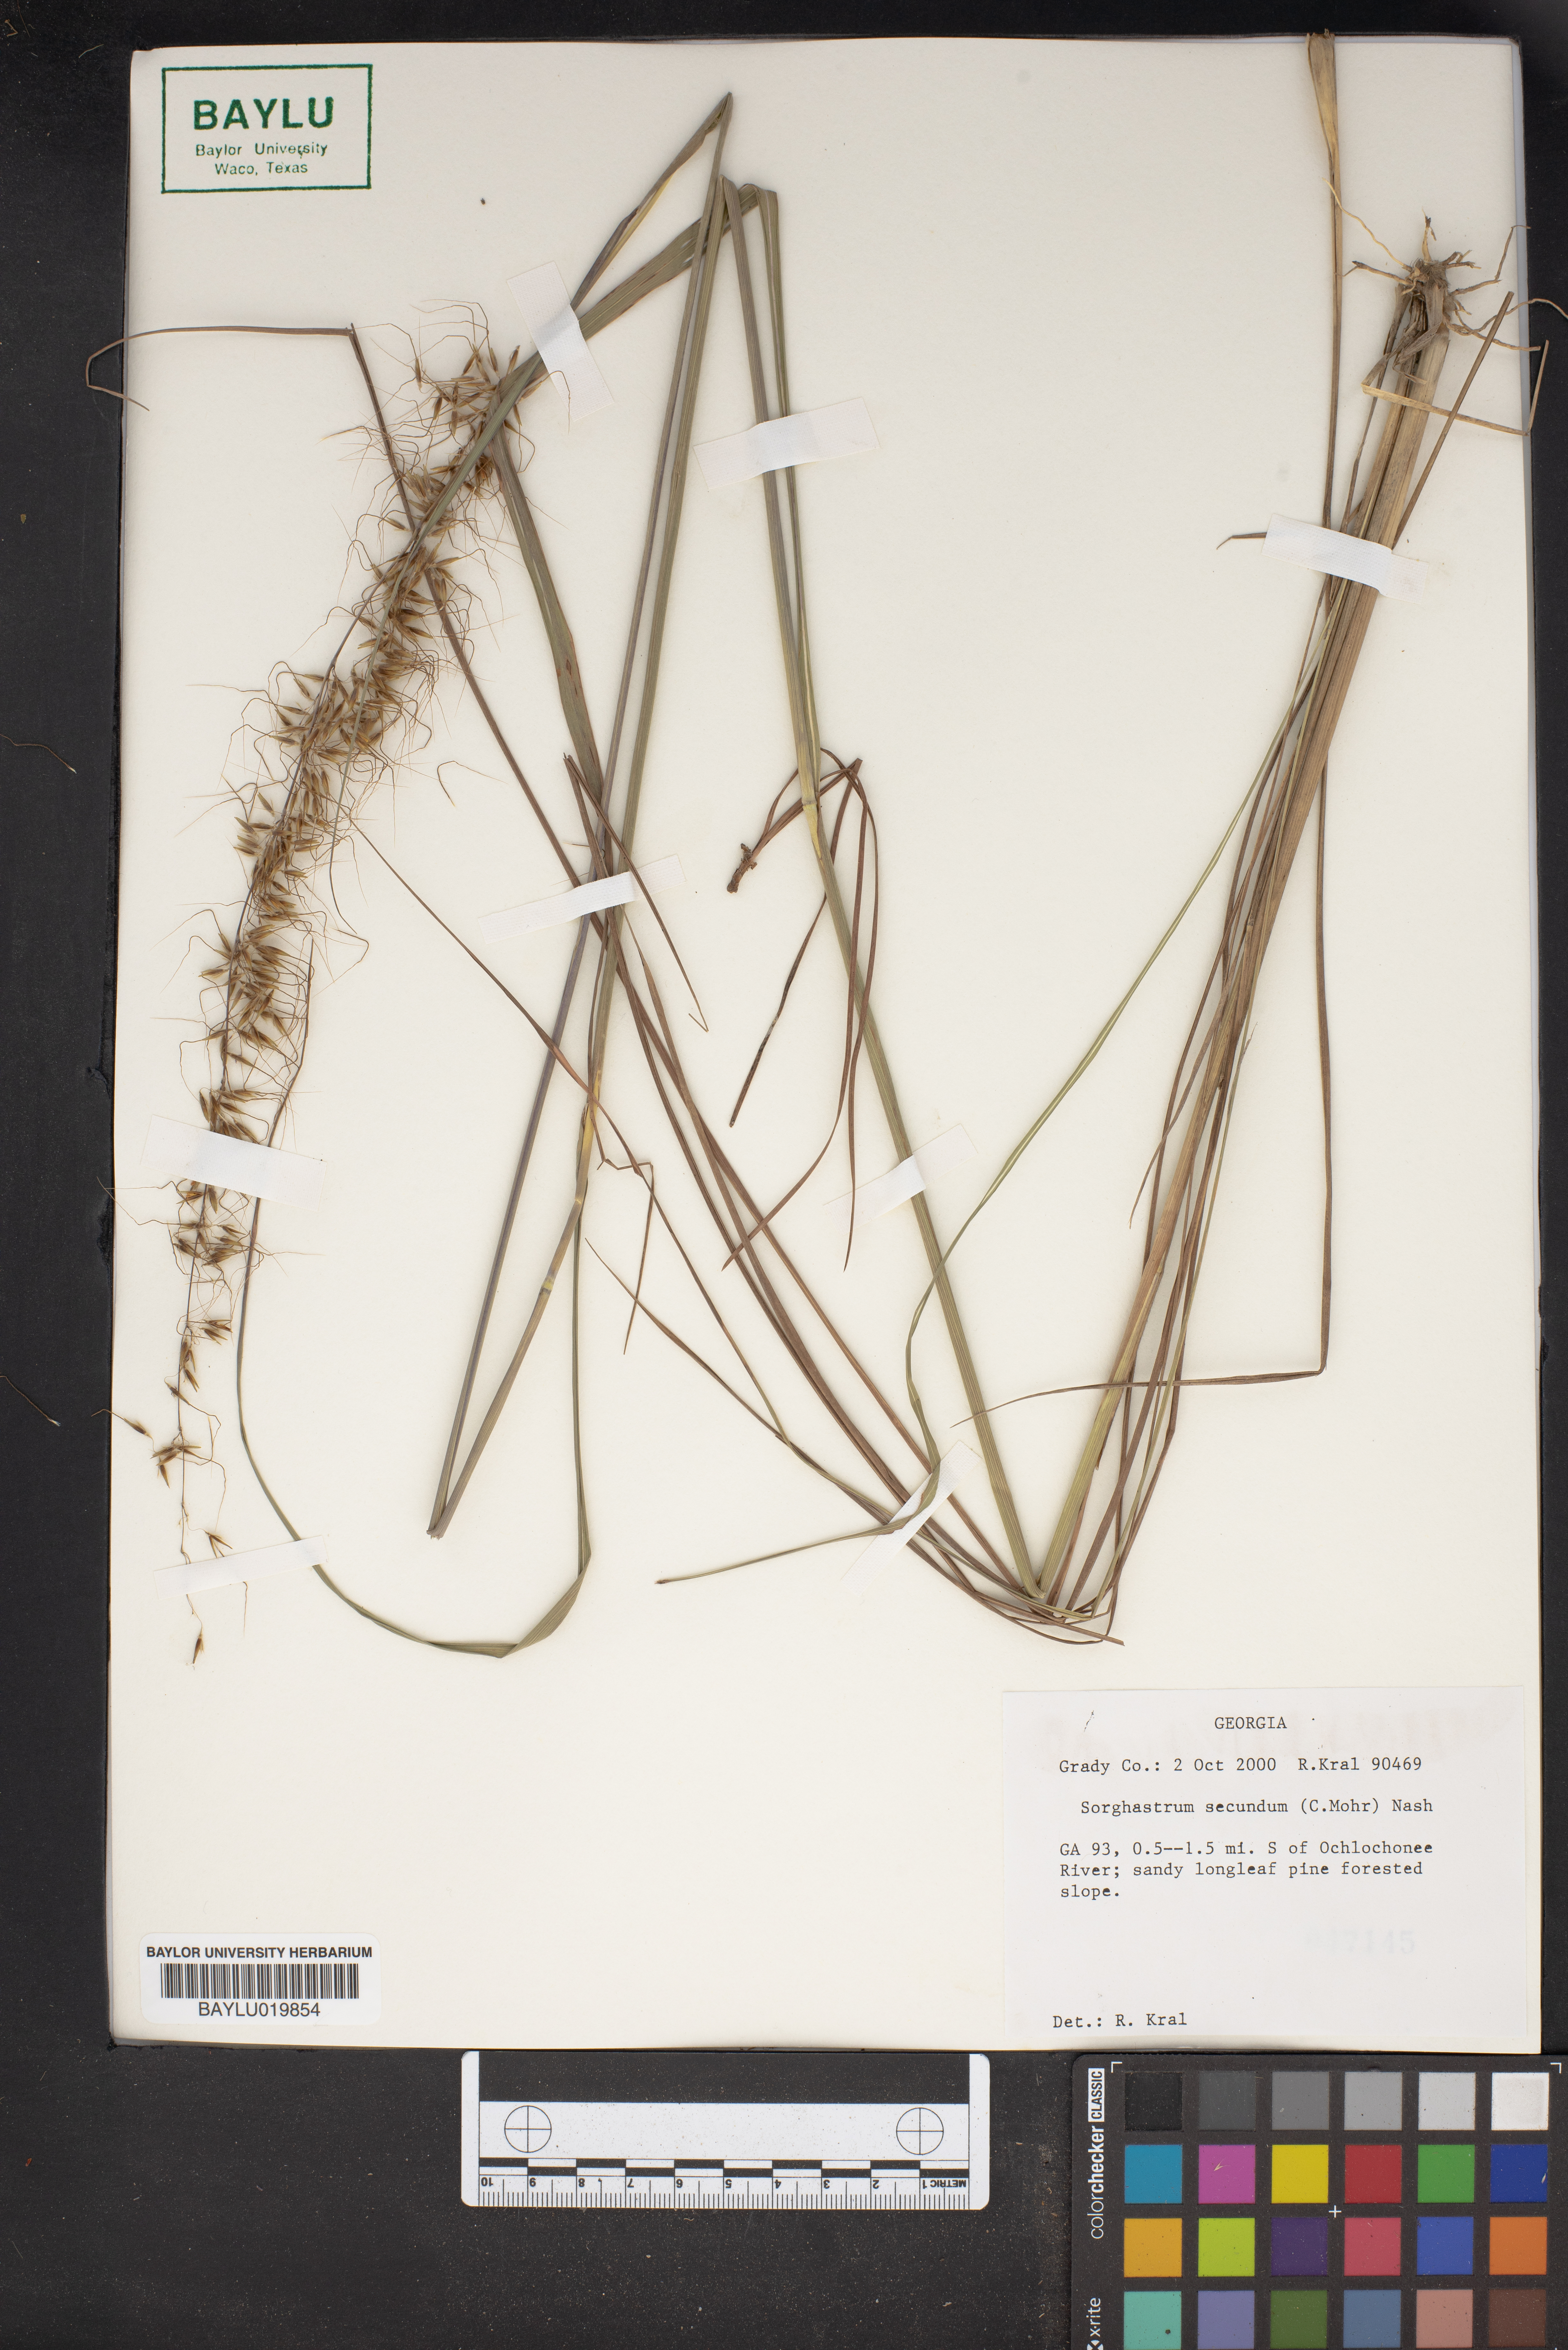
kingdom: Plantae
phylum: Tracheophyta
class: Liliopsida
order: Poales
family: Poaceae
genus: Sorghastrum
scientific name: Sorghastrum secundum
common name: Lopsided indian grass
